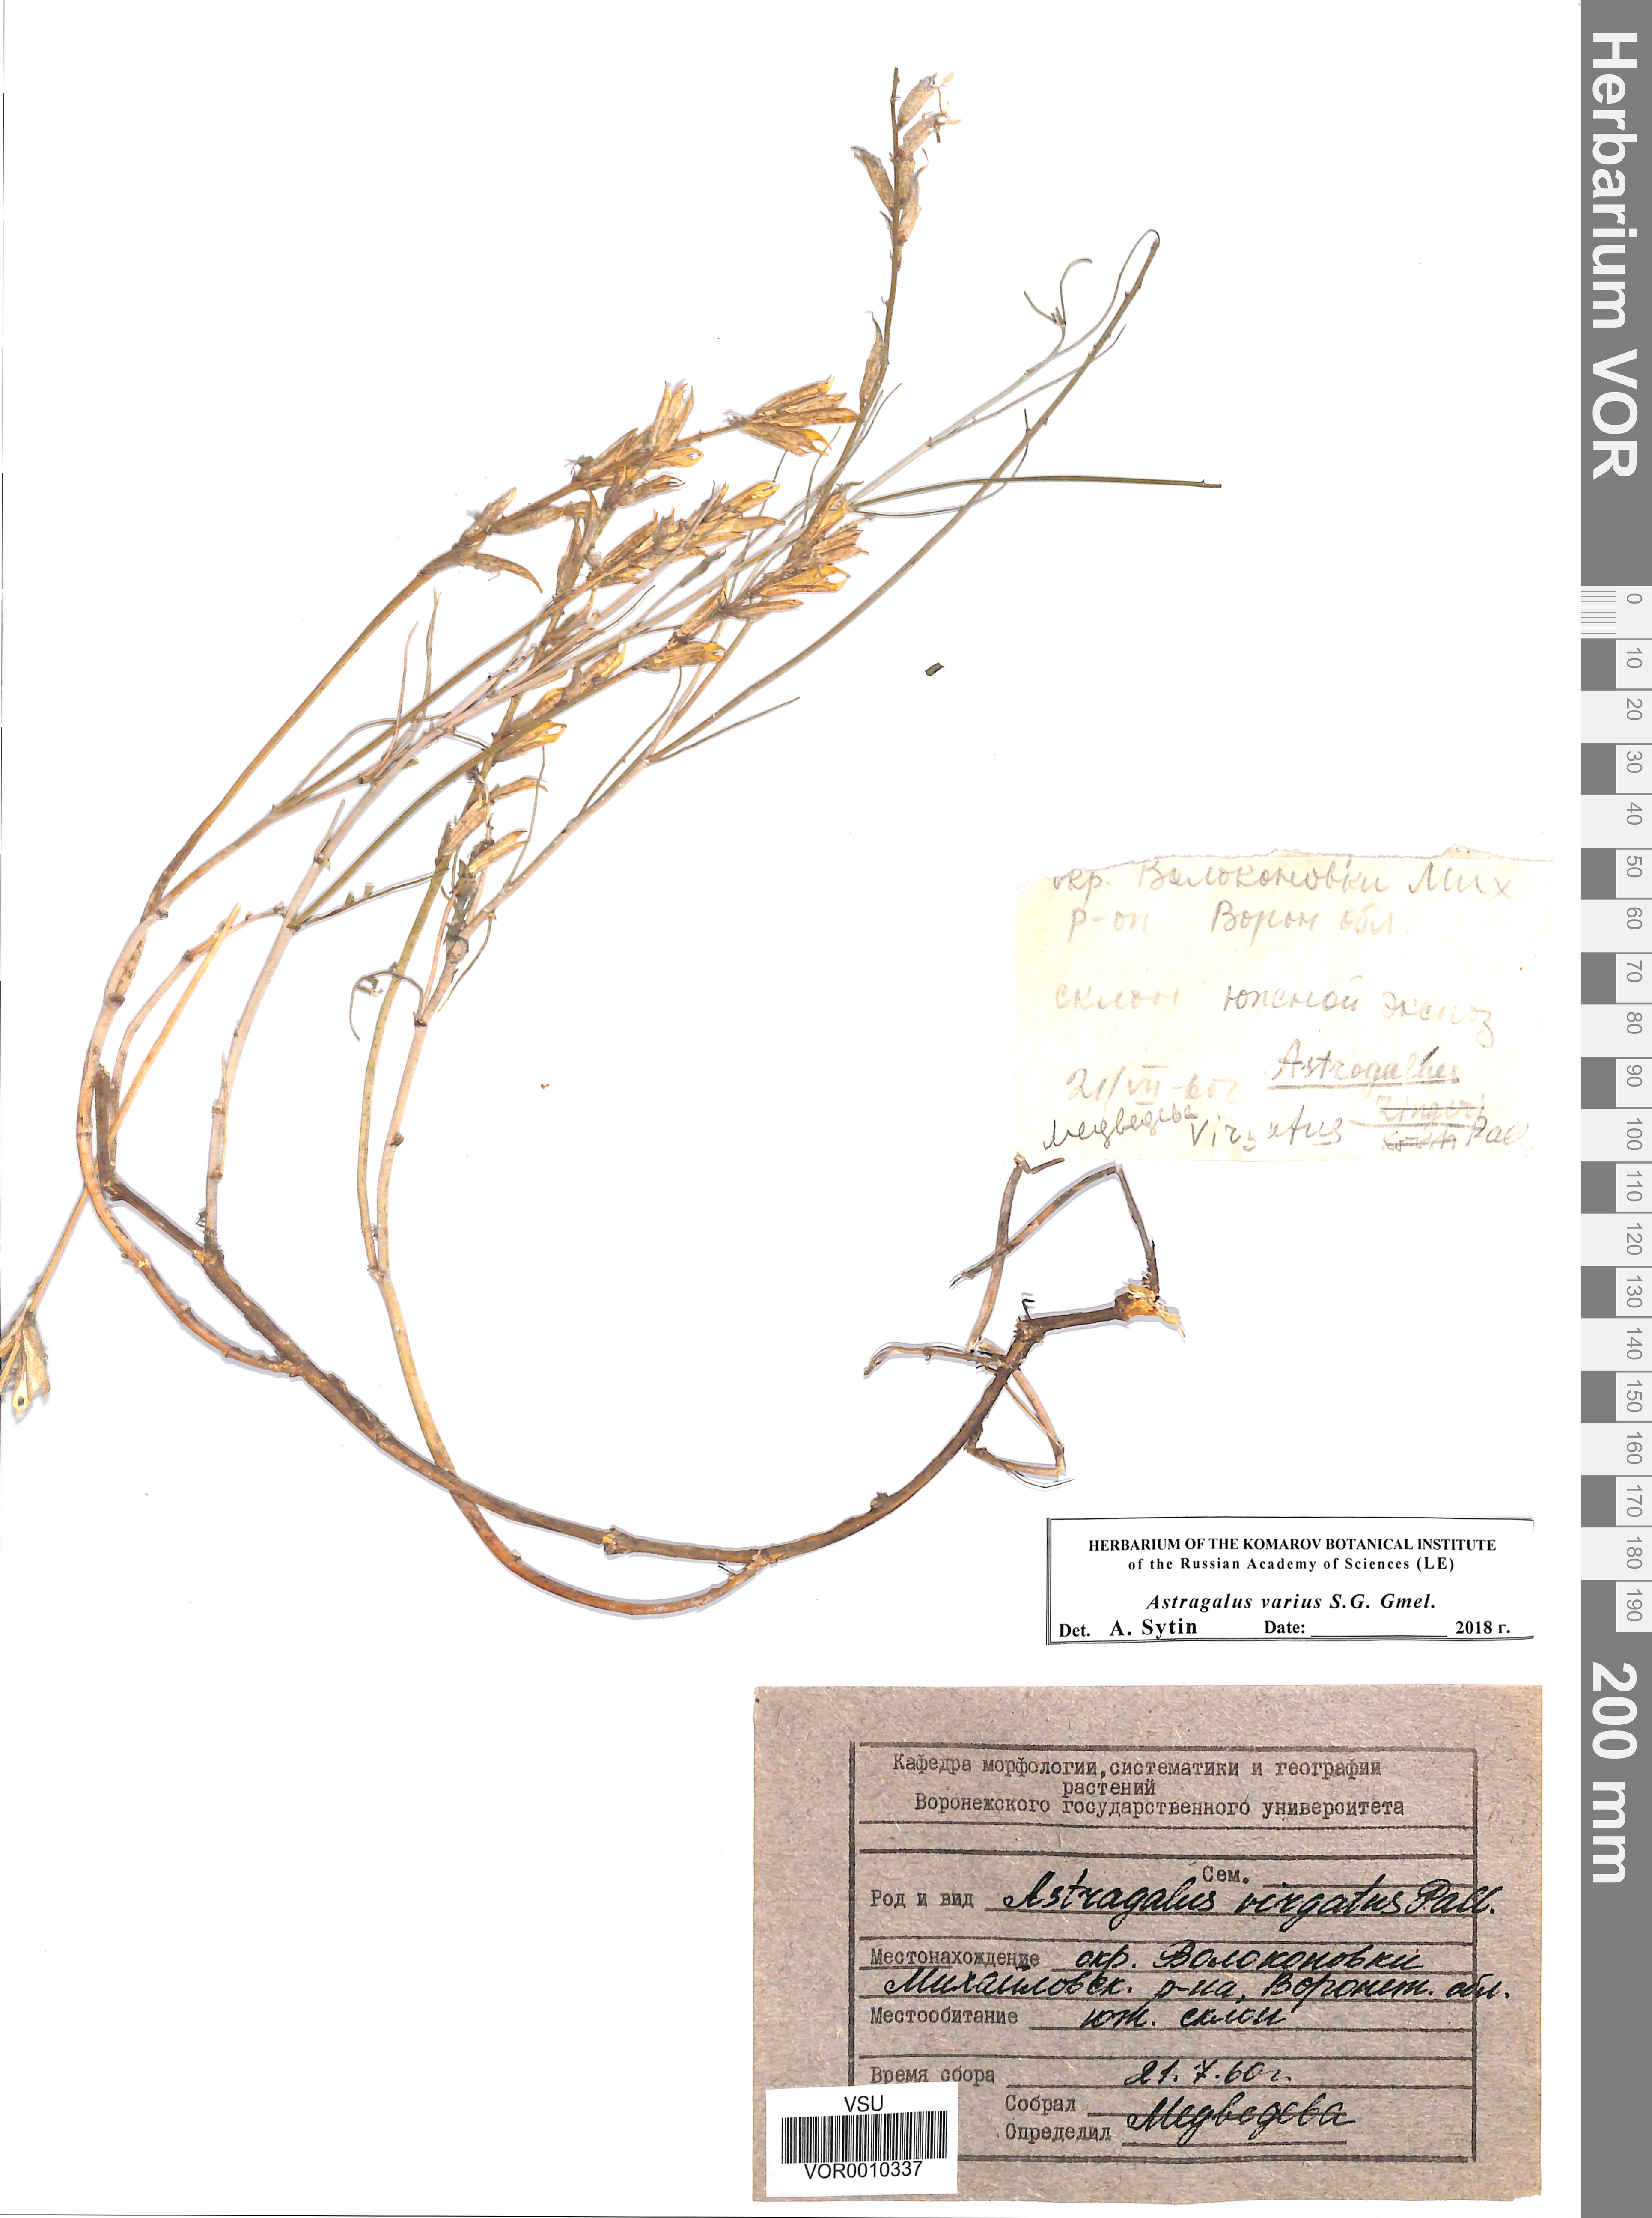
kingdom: Plantae
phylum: Tracheophyta
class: Magnoliopsida
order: Fabales
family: Fabaceae
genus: Astragalus
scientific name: Astragalus varius
